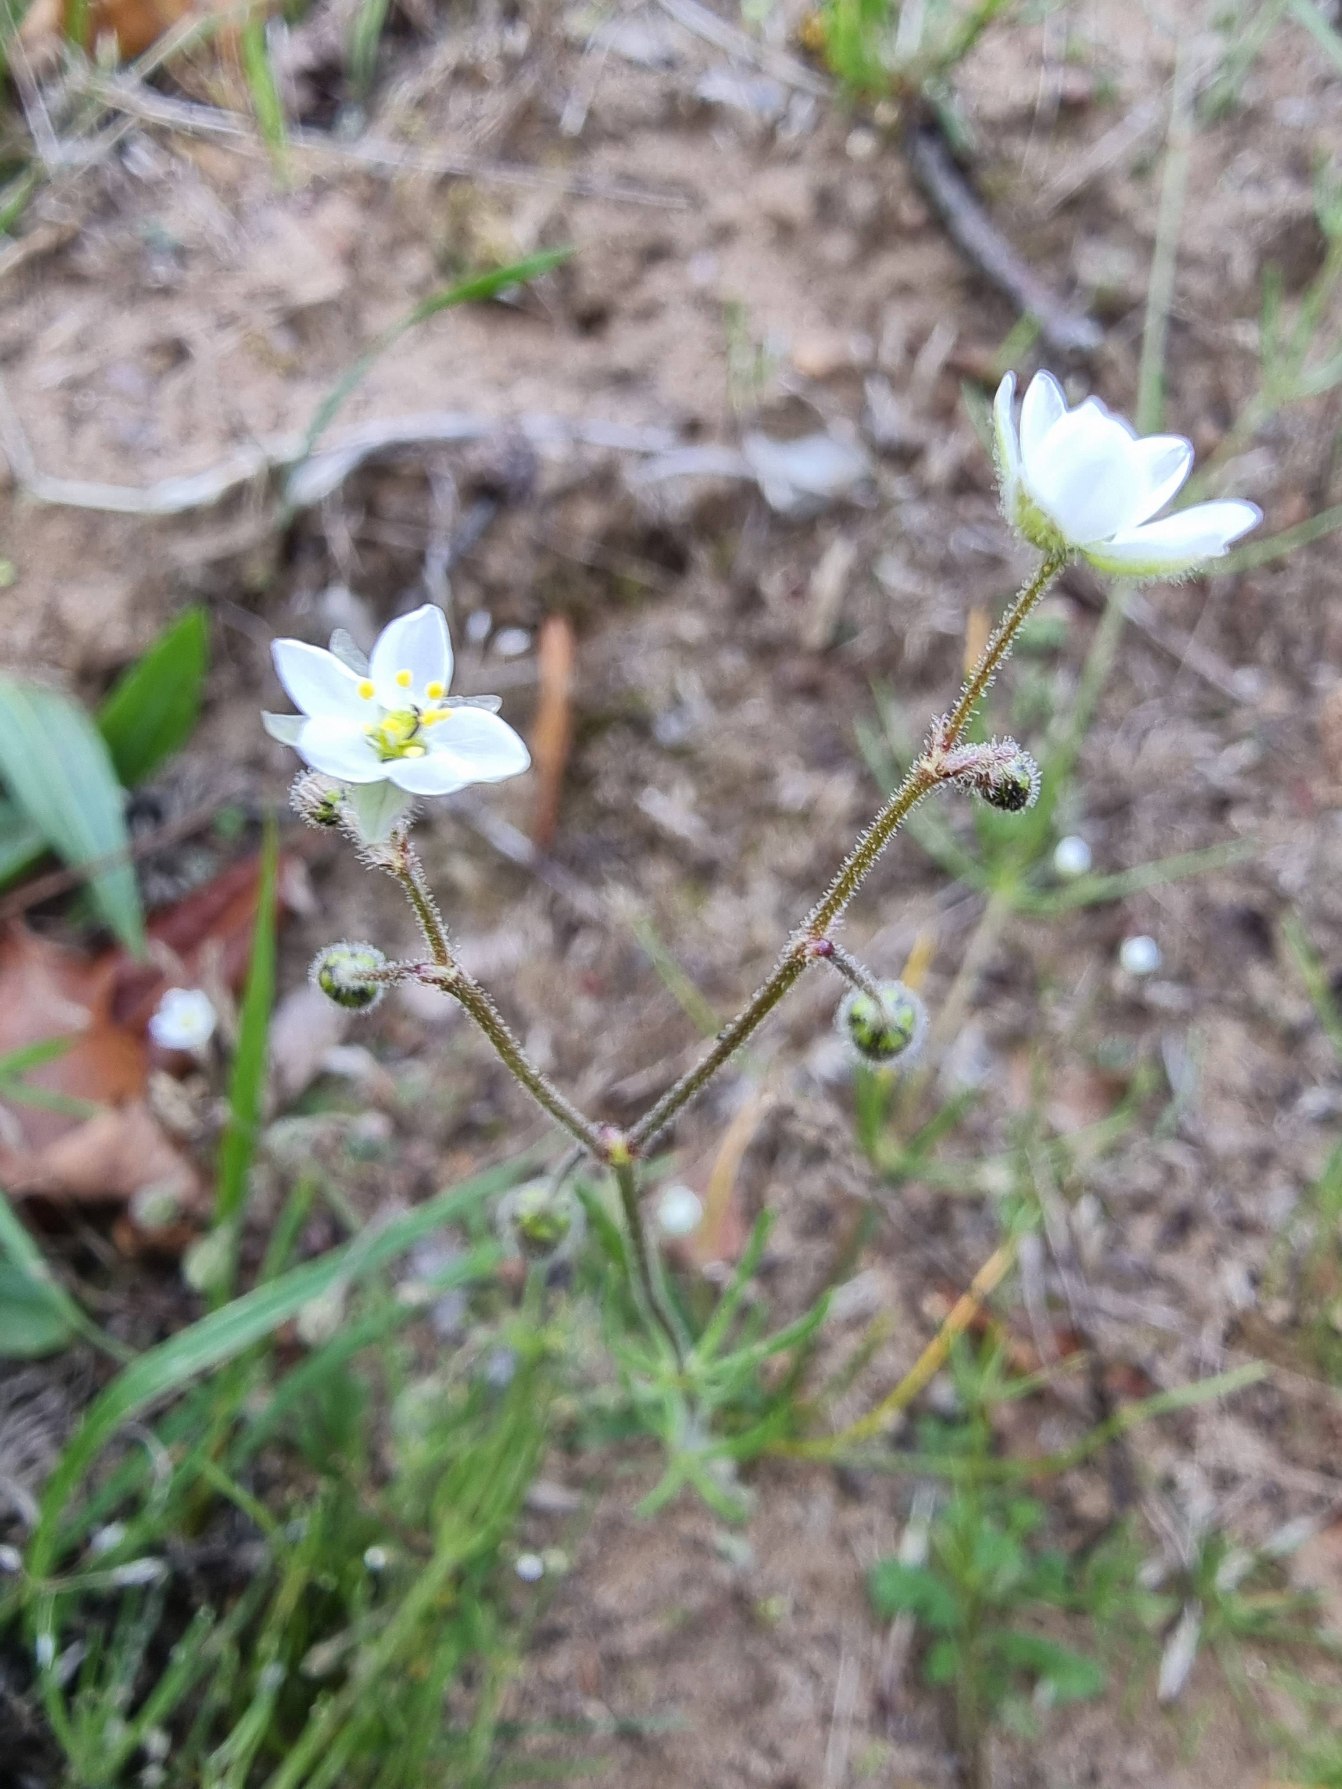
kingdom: Plantae
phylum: Tracheophyta
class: Magnoliopsida
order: Caryophyllales
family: Caryophyllaceae
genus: Spergula
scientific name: Spergula arvensis
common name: Almindelig spergel
